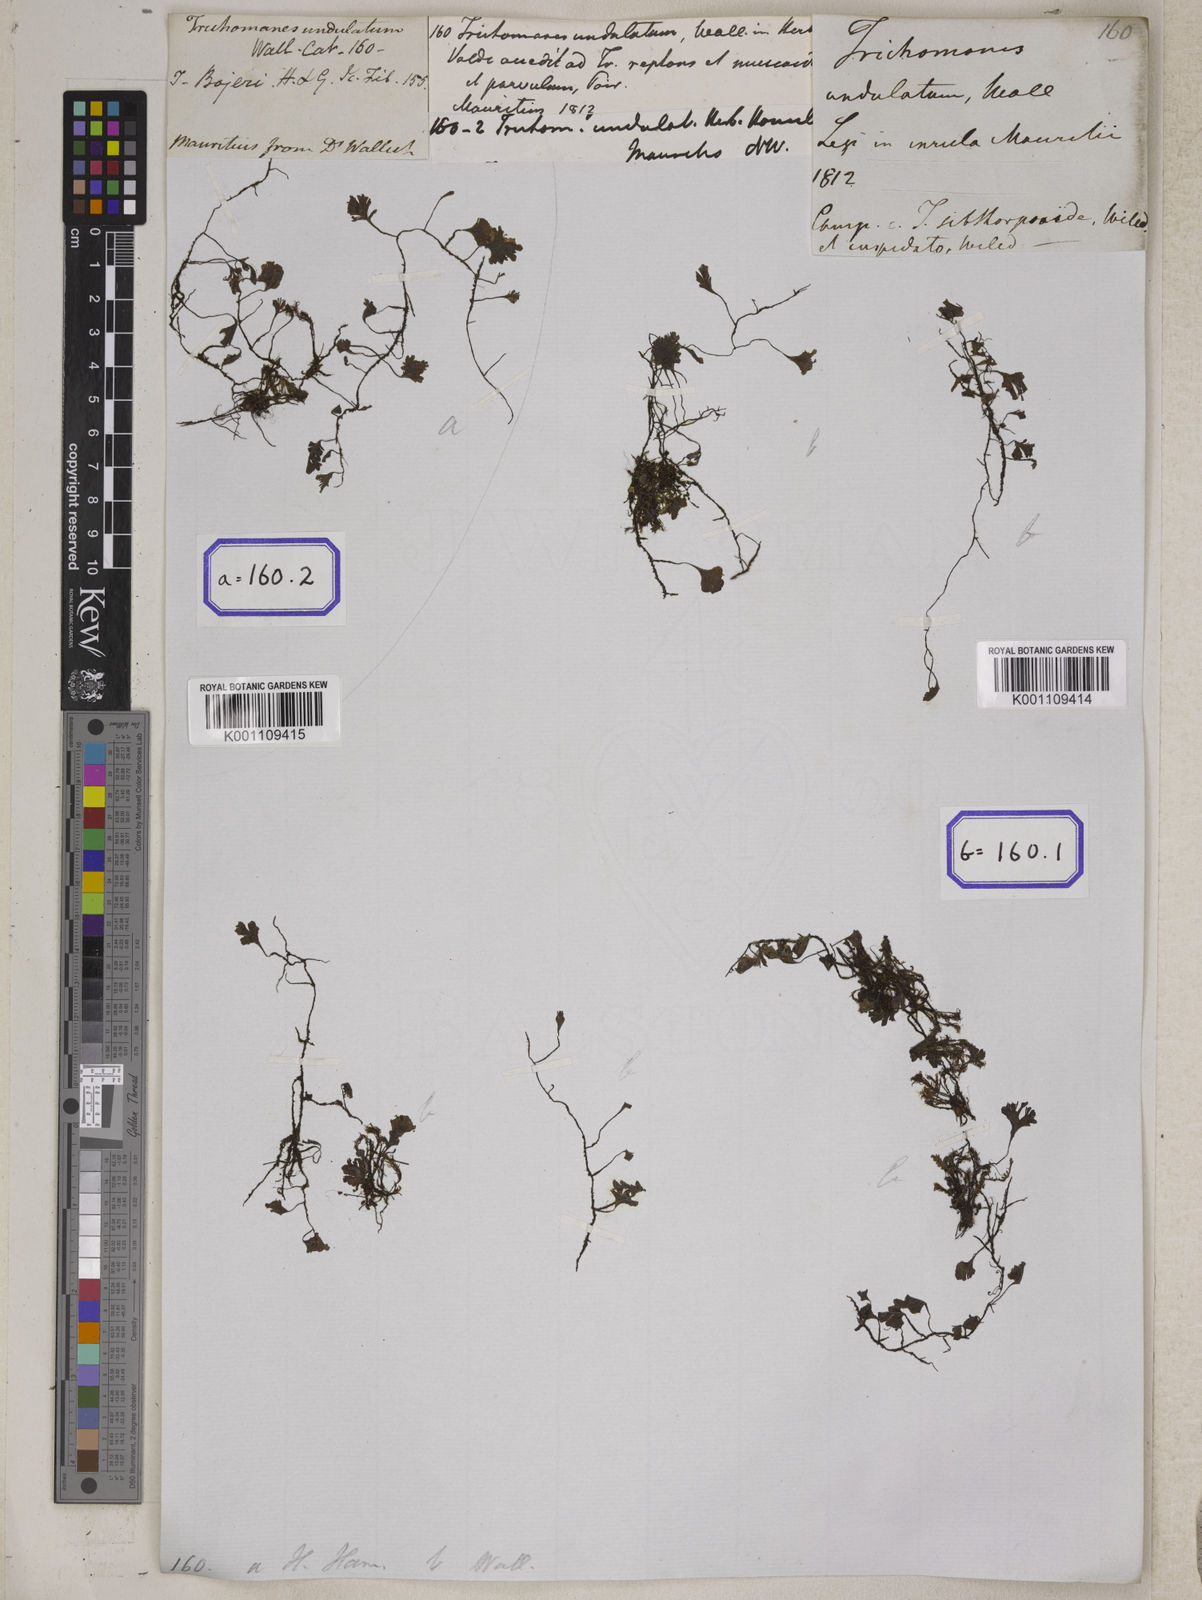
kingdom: Plantae
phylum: Tracheophyta
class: Polypodiopsida
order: Hymenophyllales
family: Hymenophyllaceae
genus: Didymoglossum
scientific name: Didymoglossum cuspidatum
